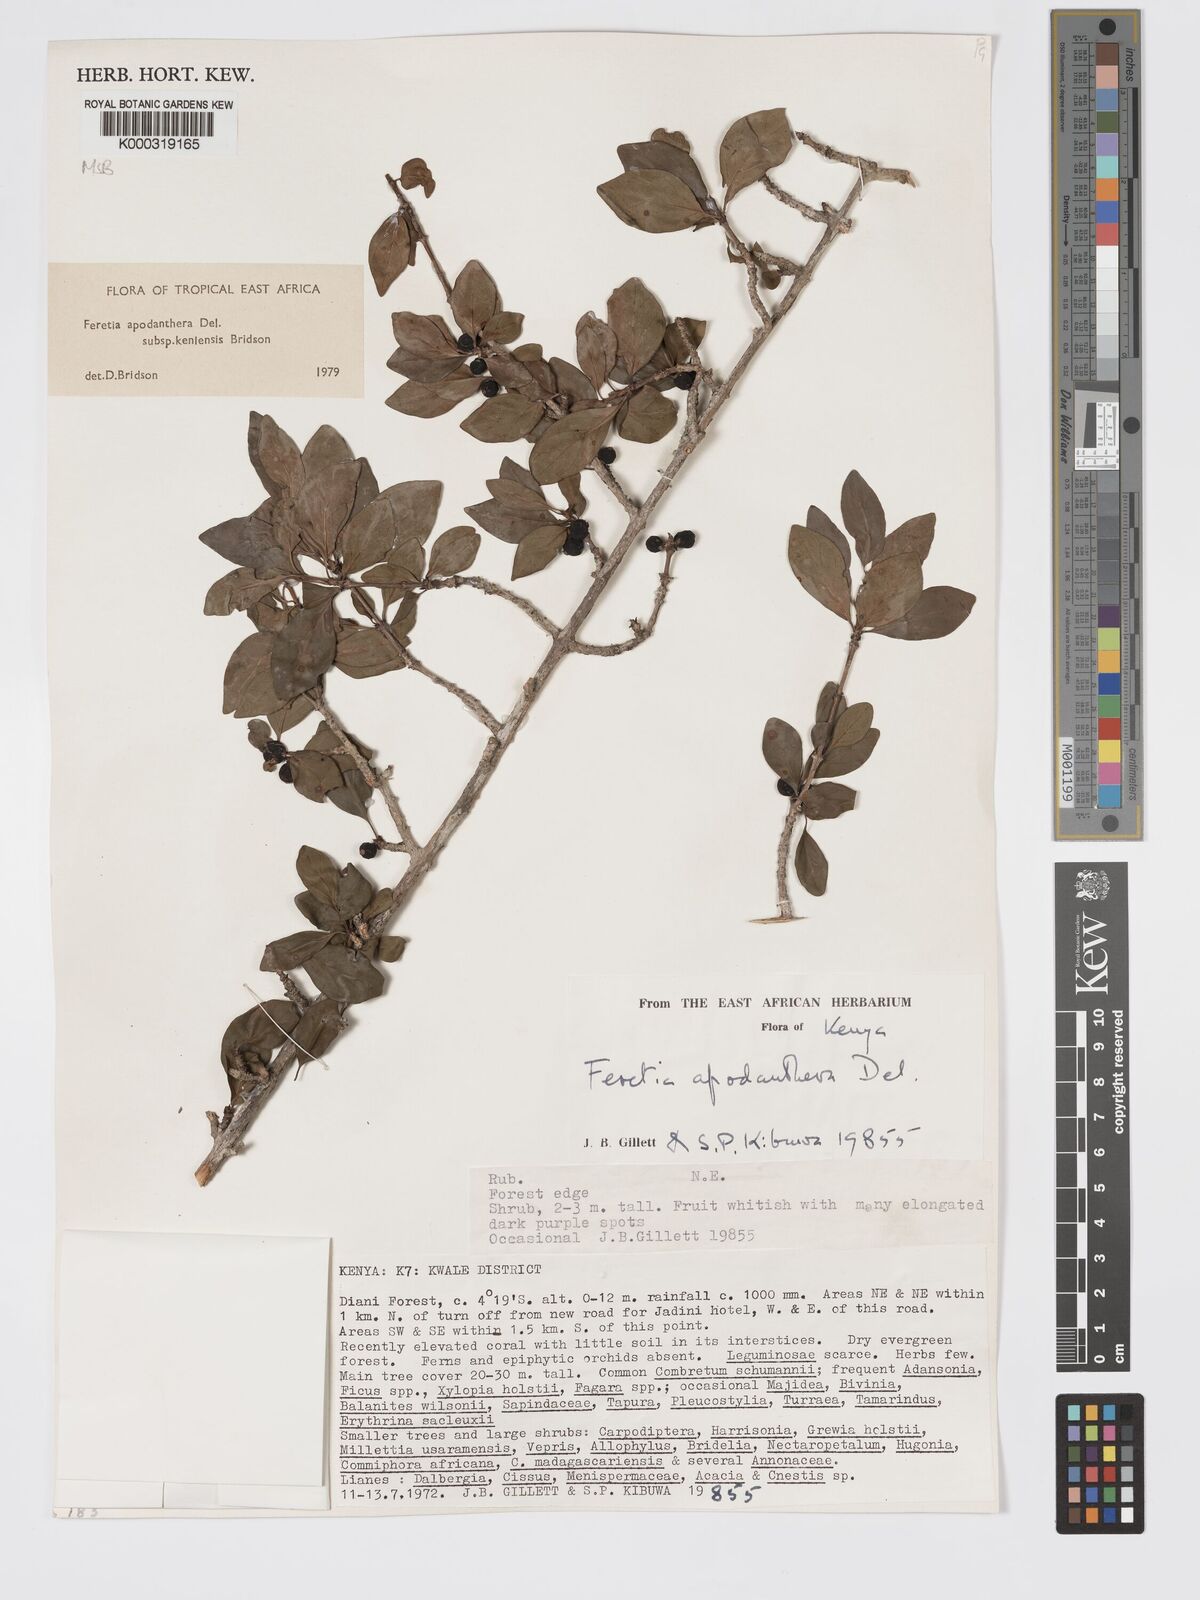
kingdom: Plantae
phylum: Tracheophyta
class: Magnoliopsida
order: Gentianales
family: Rubiaceae
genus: Feretia
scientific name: Feretia apodanthera
